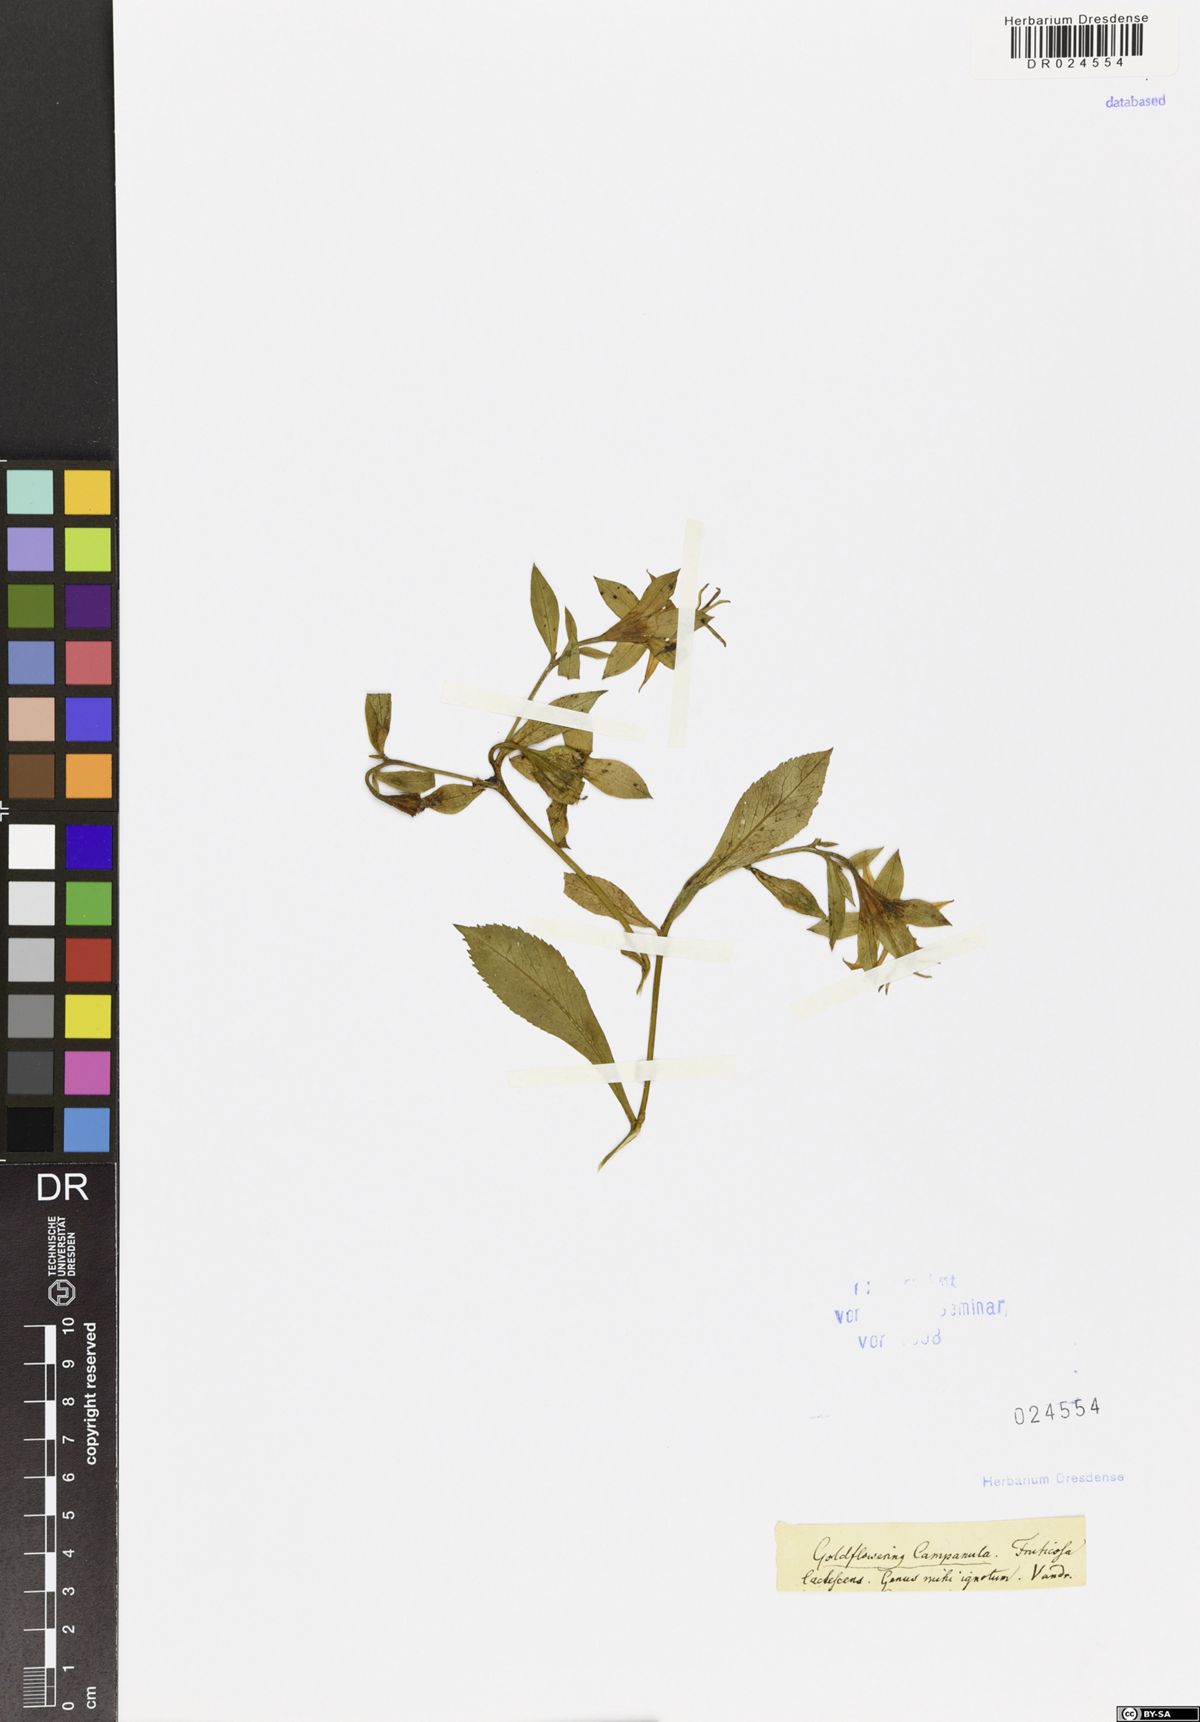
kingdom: Plantae
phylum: Tracheophyta
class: Magnoliopsida
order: Asterales
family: Campanulaceae
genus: Musschia
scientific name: Musschia aurea
